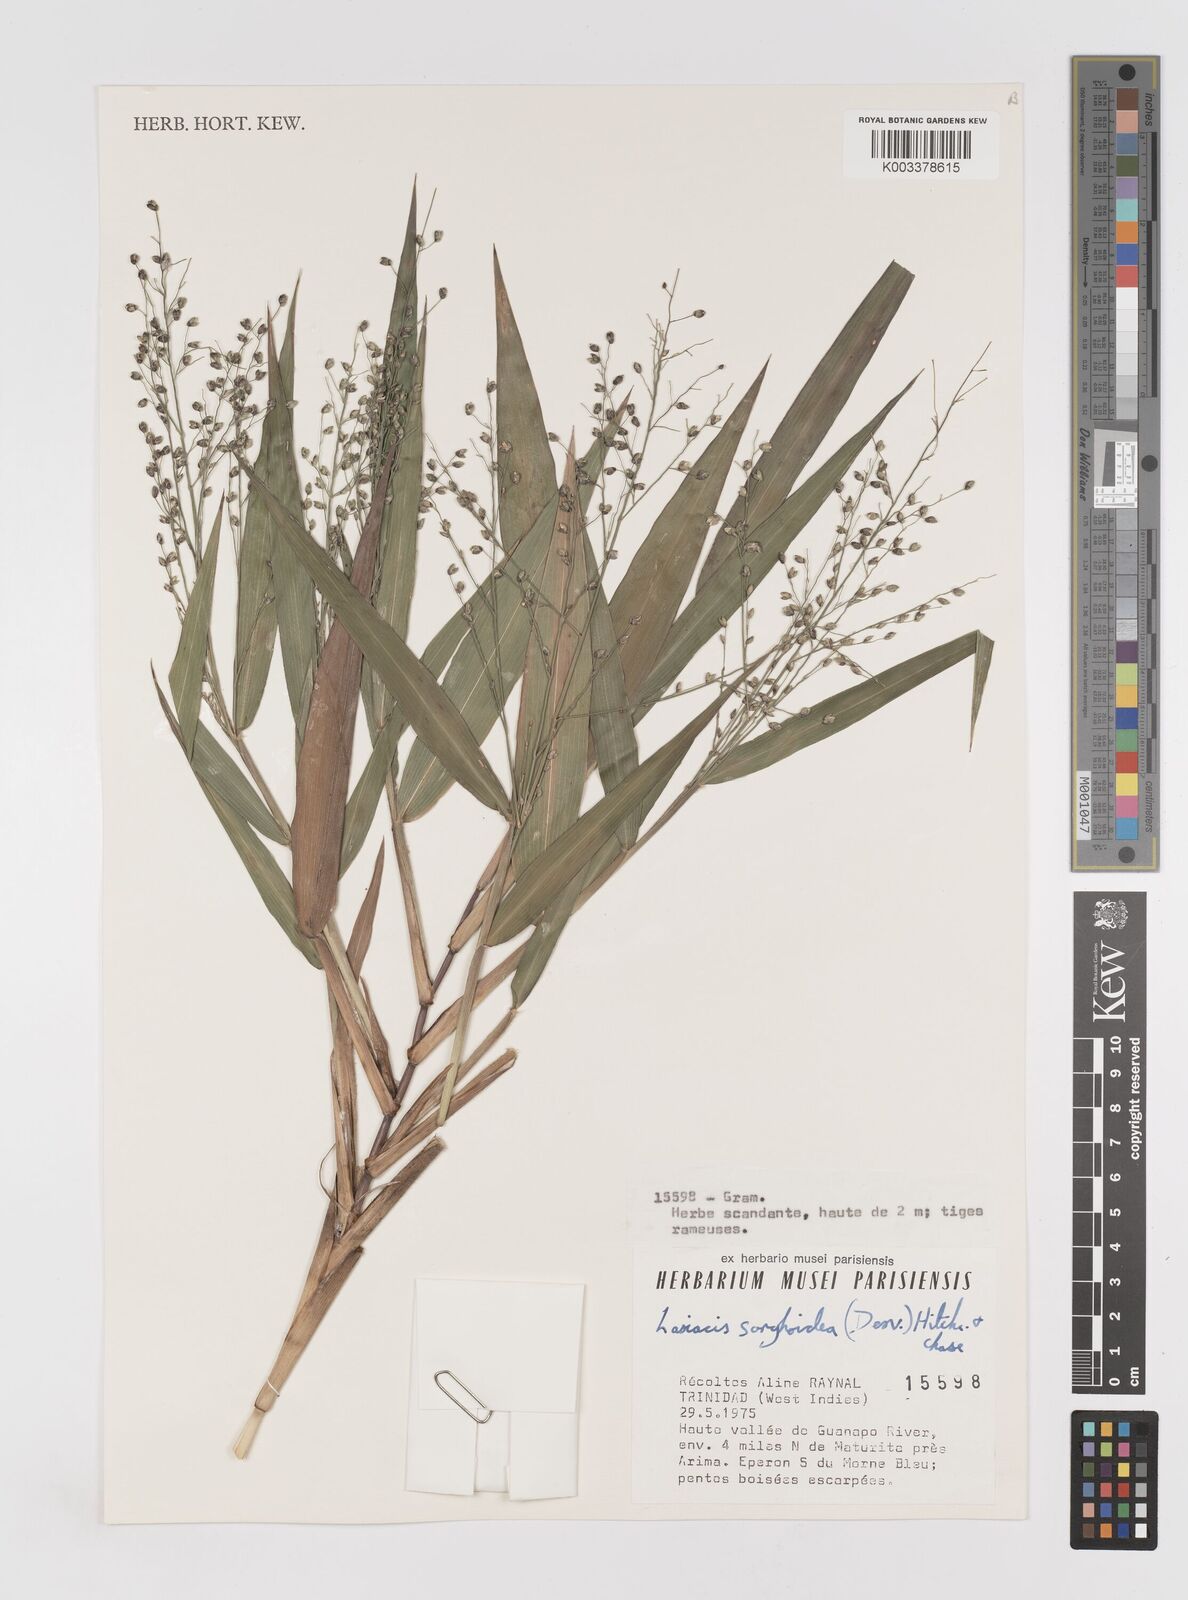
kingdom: Plantae
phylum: Tracheophyta
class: Liliopsida
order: Poales
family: Poaceae
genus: Lasiacis
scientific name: Lasiacis maculata
